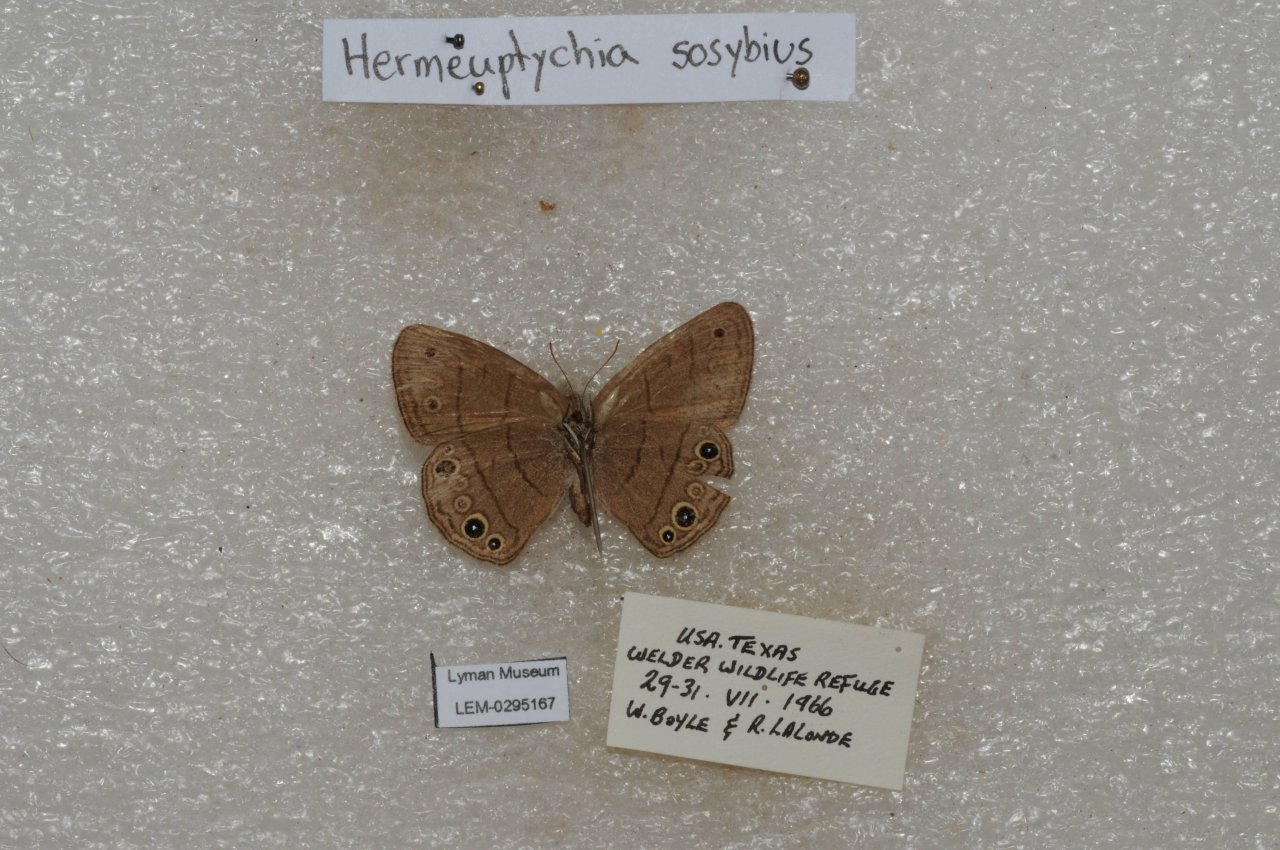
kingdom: Animalia
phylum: Arthropoda
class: Insecta
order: Lepidoptera
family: Nymphalidae
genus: Hermeuptychia
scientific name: Hermeuptychia hermes
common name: Carolina Satyr
